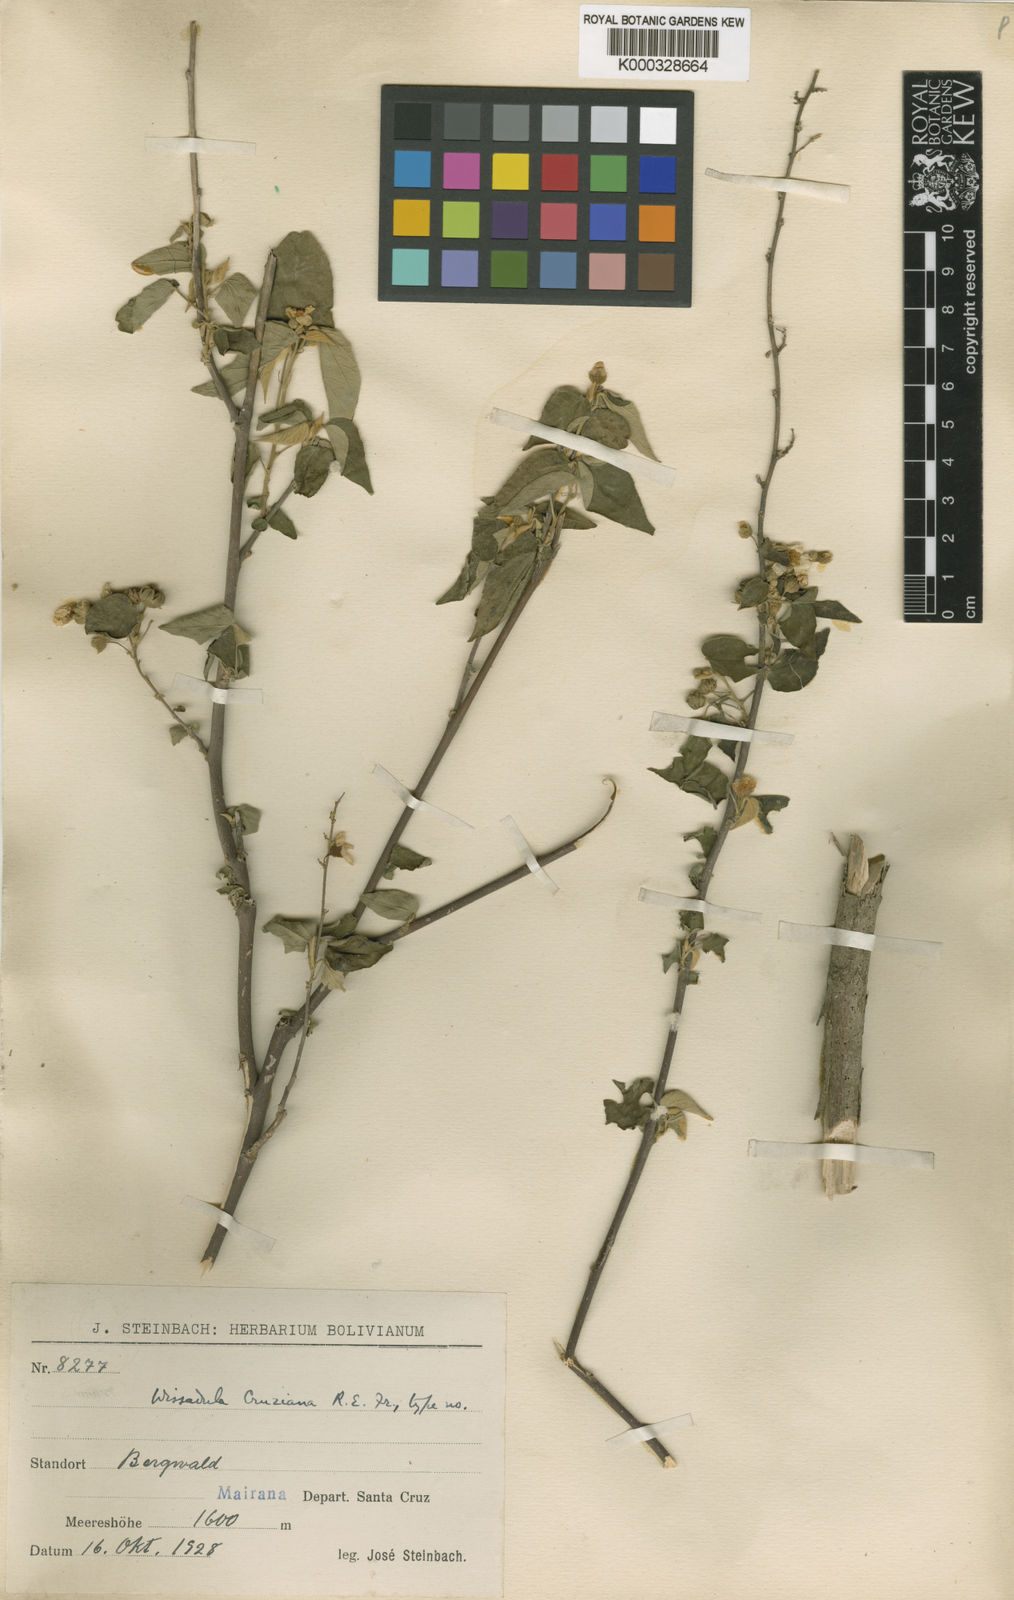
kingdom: Plantae
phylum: Tracheophyta
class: Magnoliopsida
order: Malvales
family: Malvaceae
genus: Wissadula
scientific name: Wissadula cruziana
